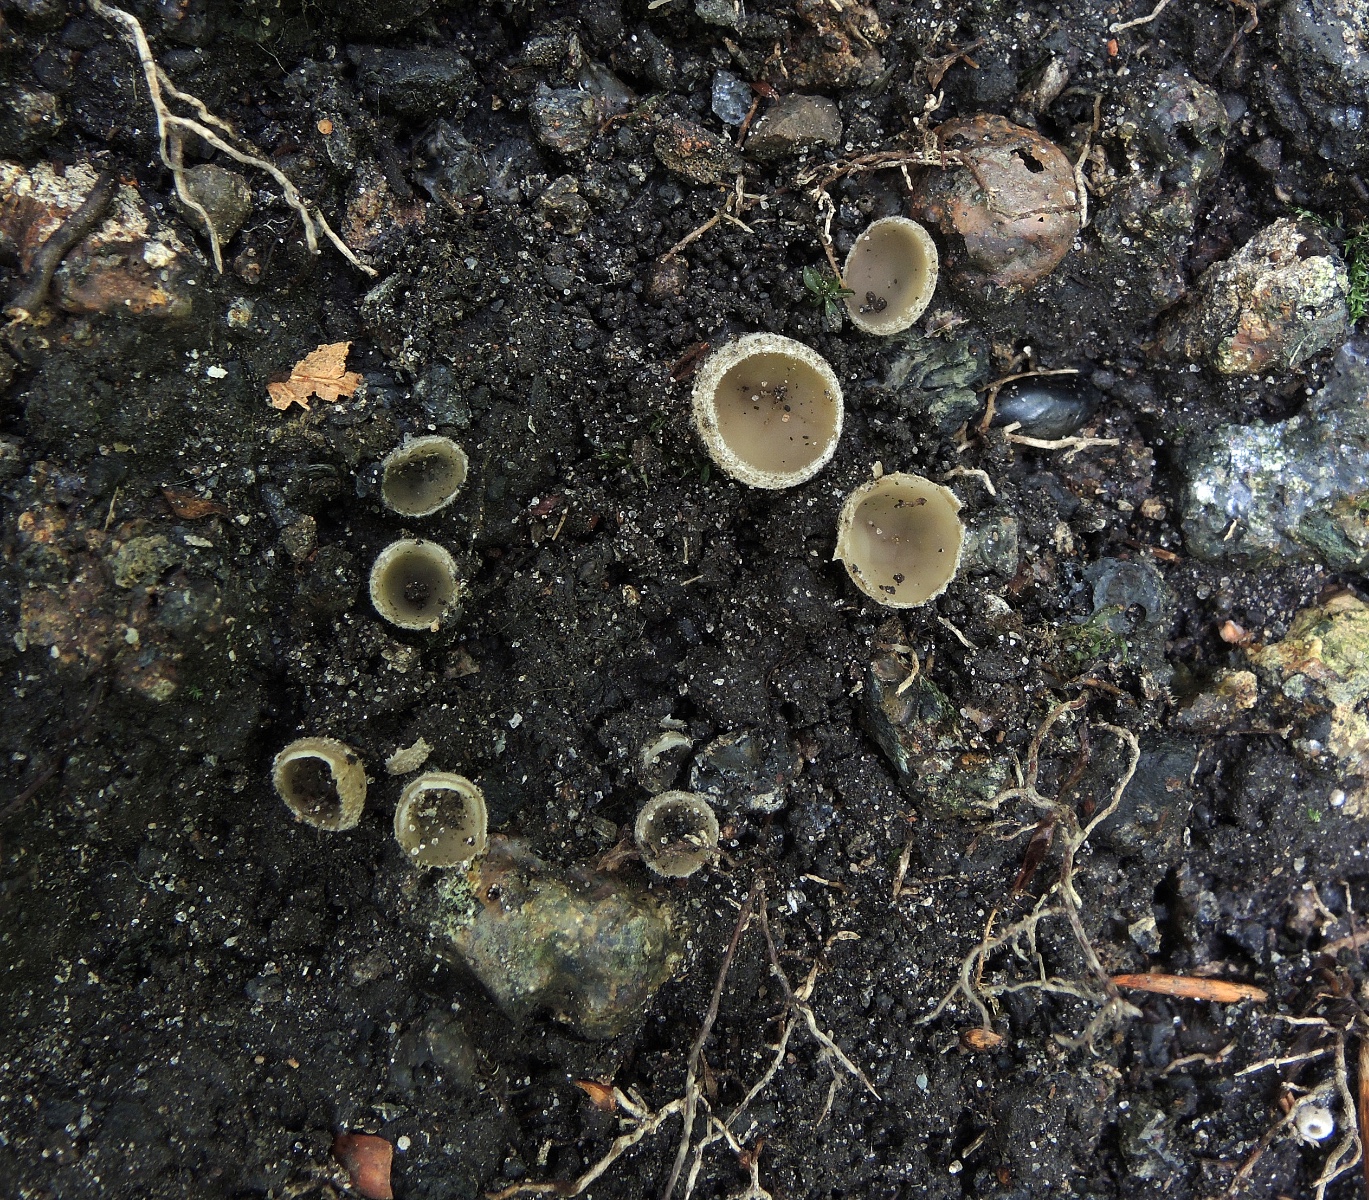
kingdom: Fungi
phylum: Ascomycota
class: Pezizomycetes
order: Pezizales
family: Tarzettaceae
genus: Tarzetta
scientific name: Tarzetta gaillardiana
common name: lille pokalbæger
